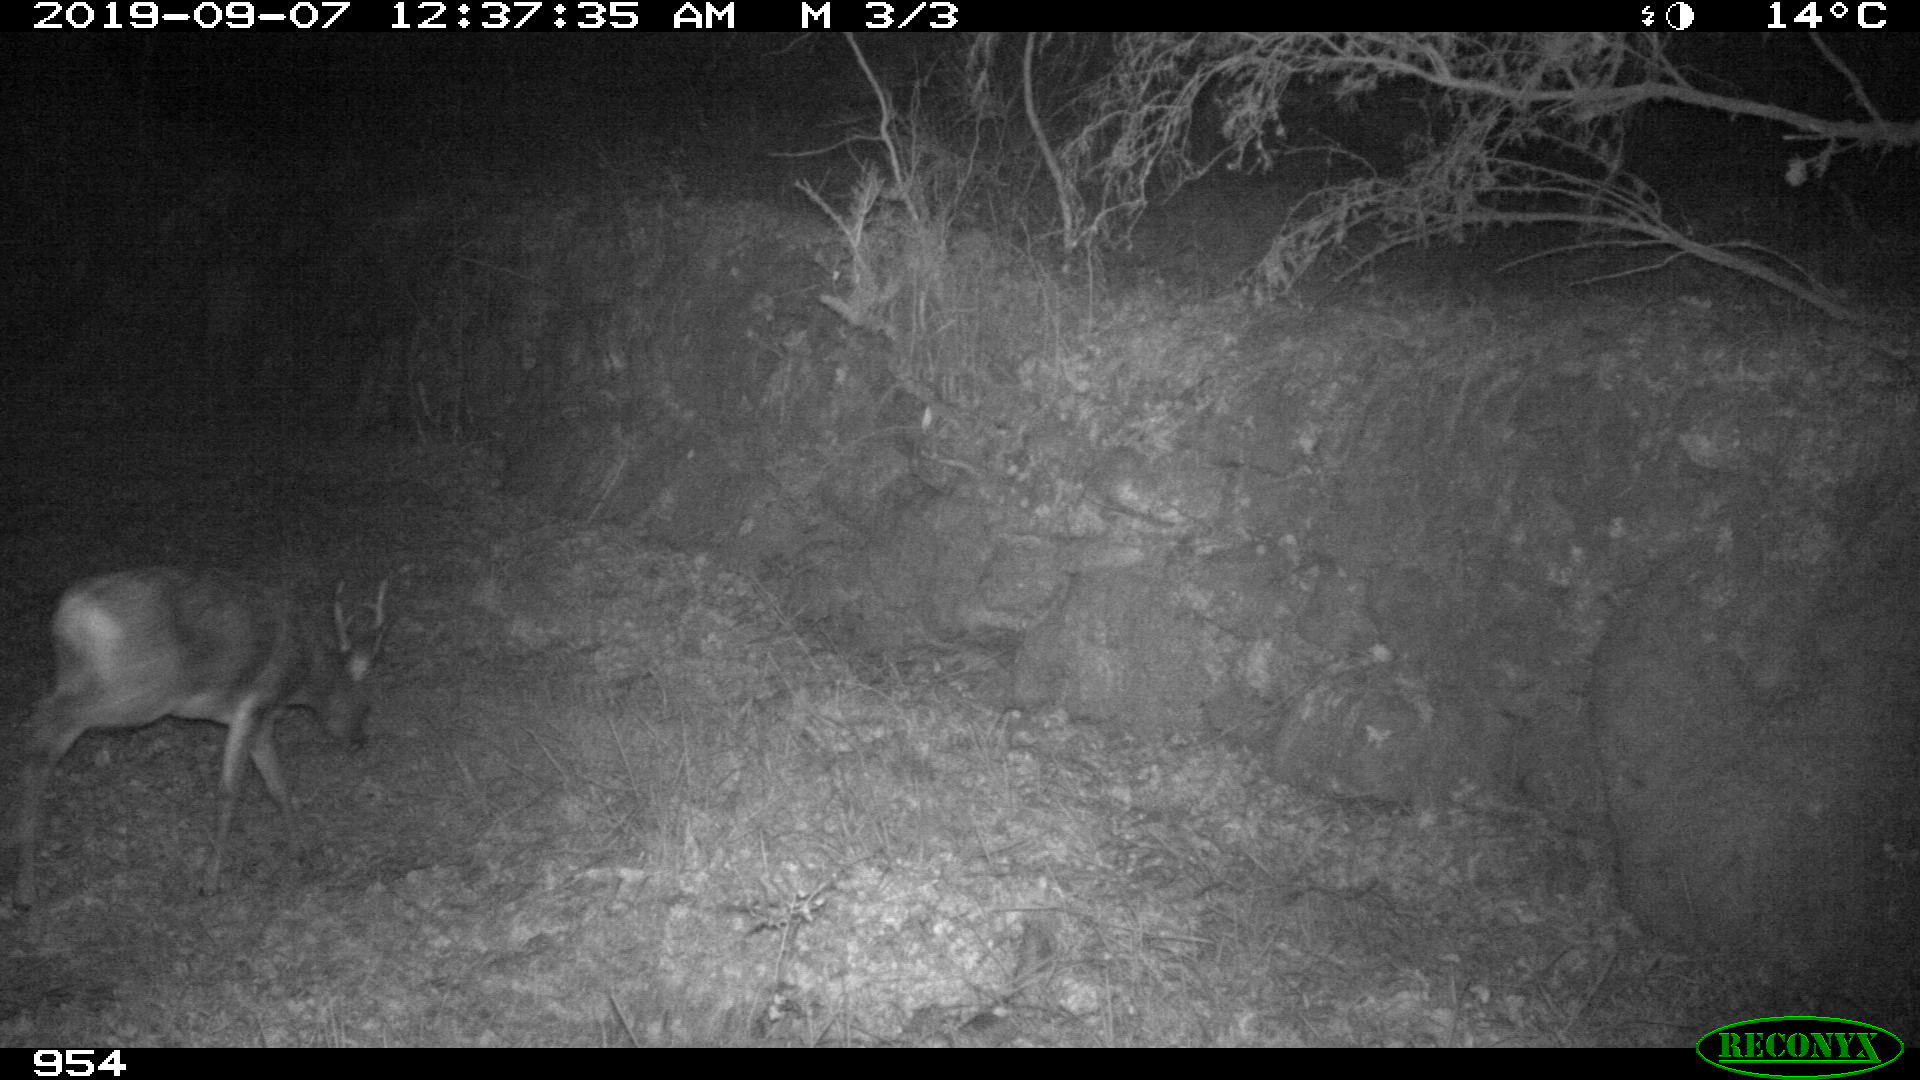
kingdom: Animalia
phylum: Chordata
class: Mammalia
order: Artiodactyla
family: Cervidae
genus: Capreolus
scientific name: Capreolus capreolus
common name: Western roe deer
